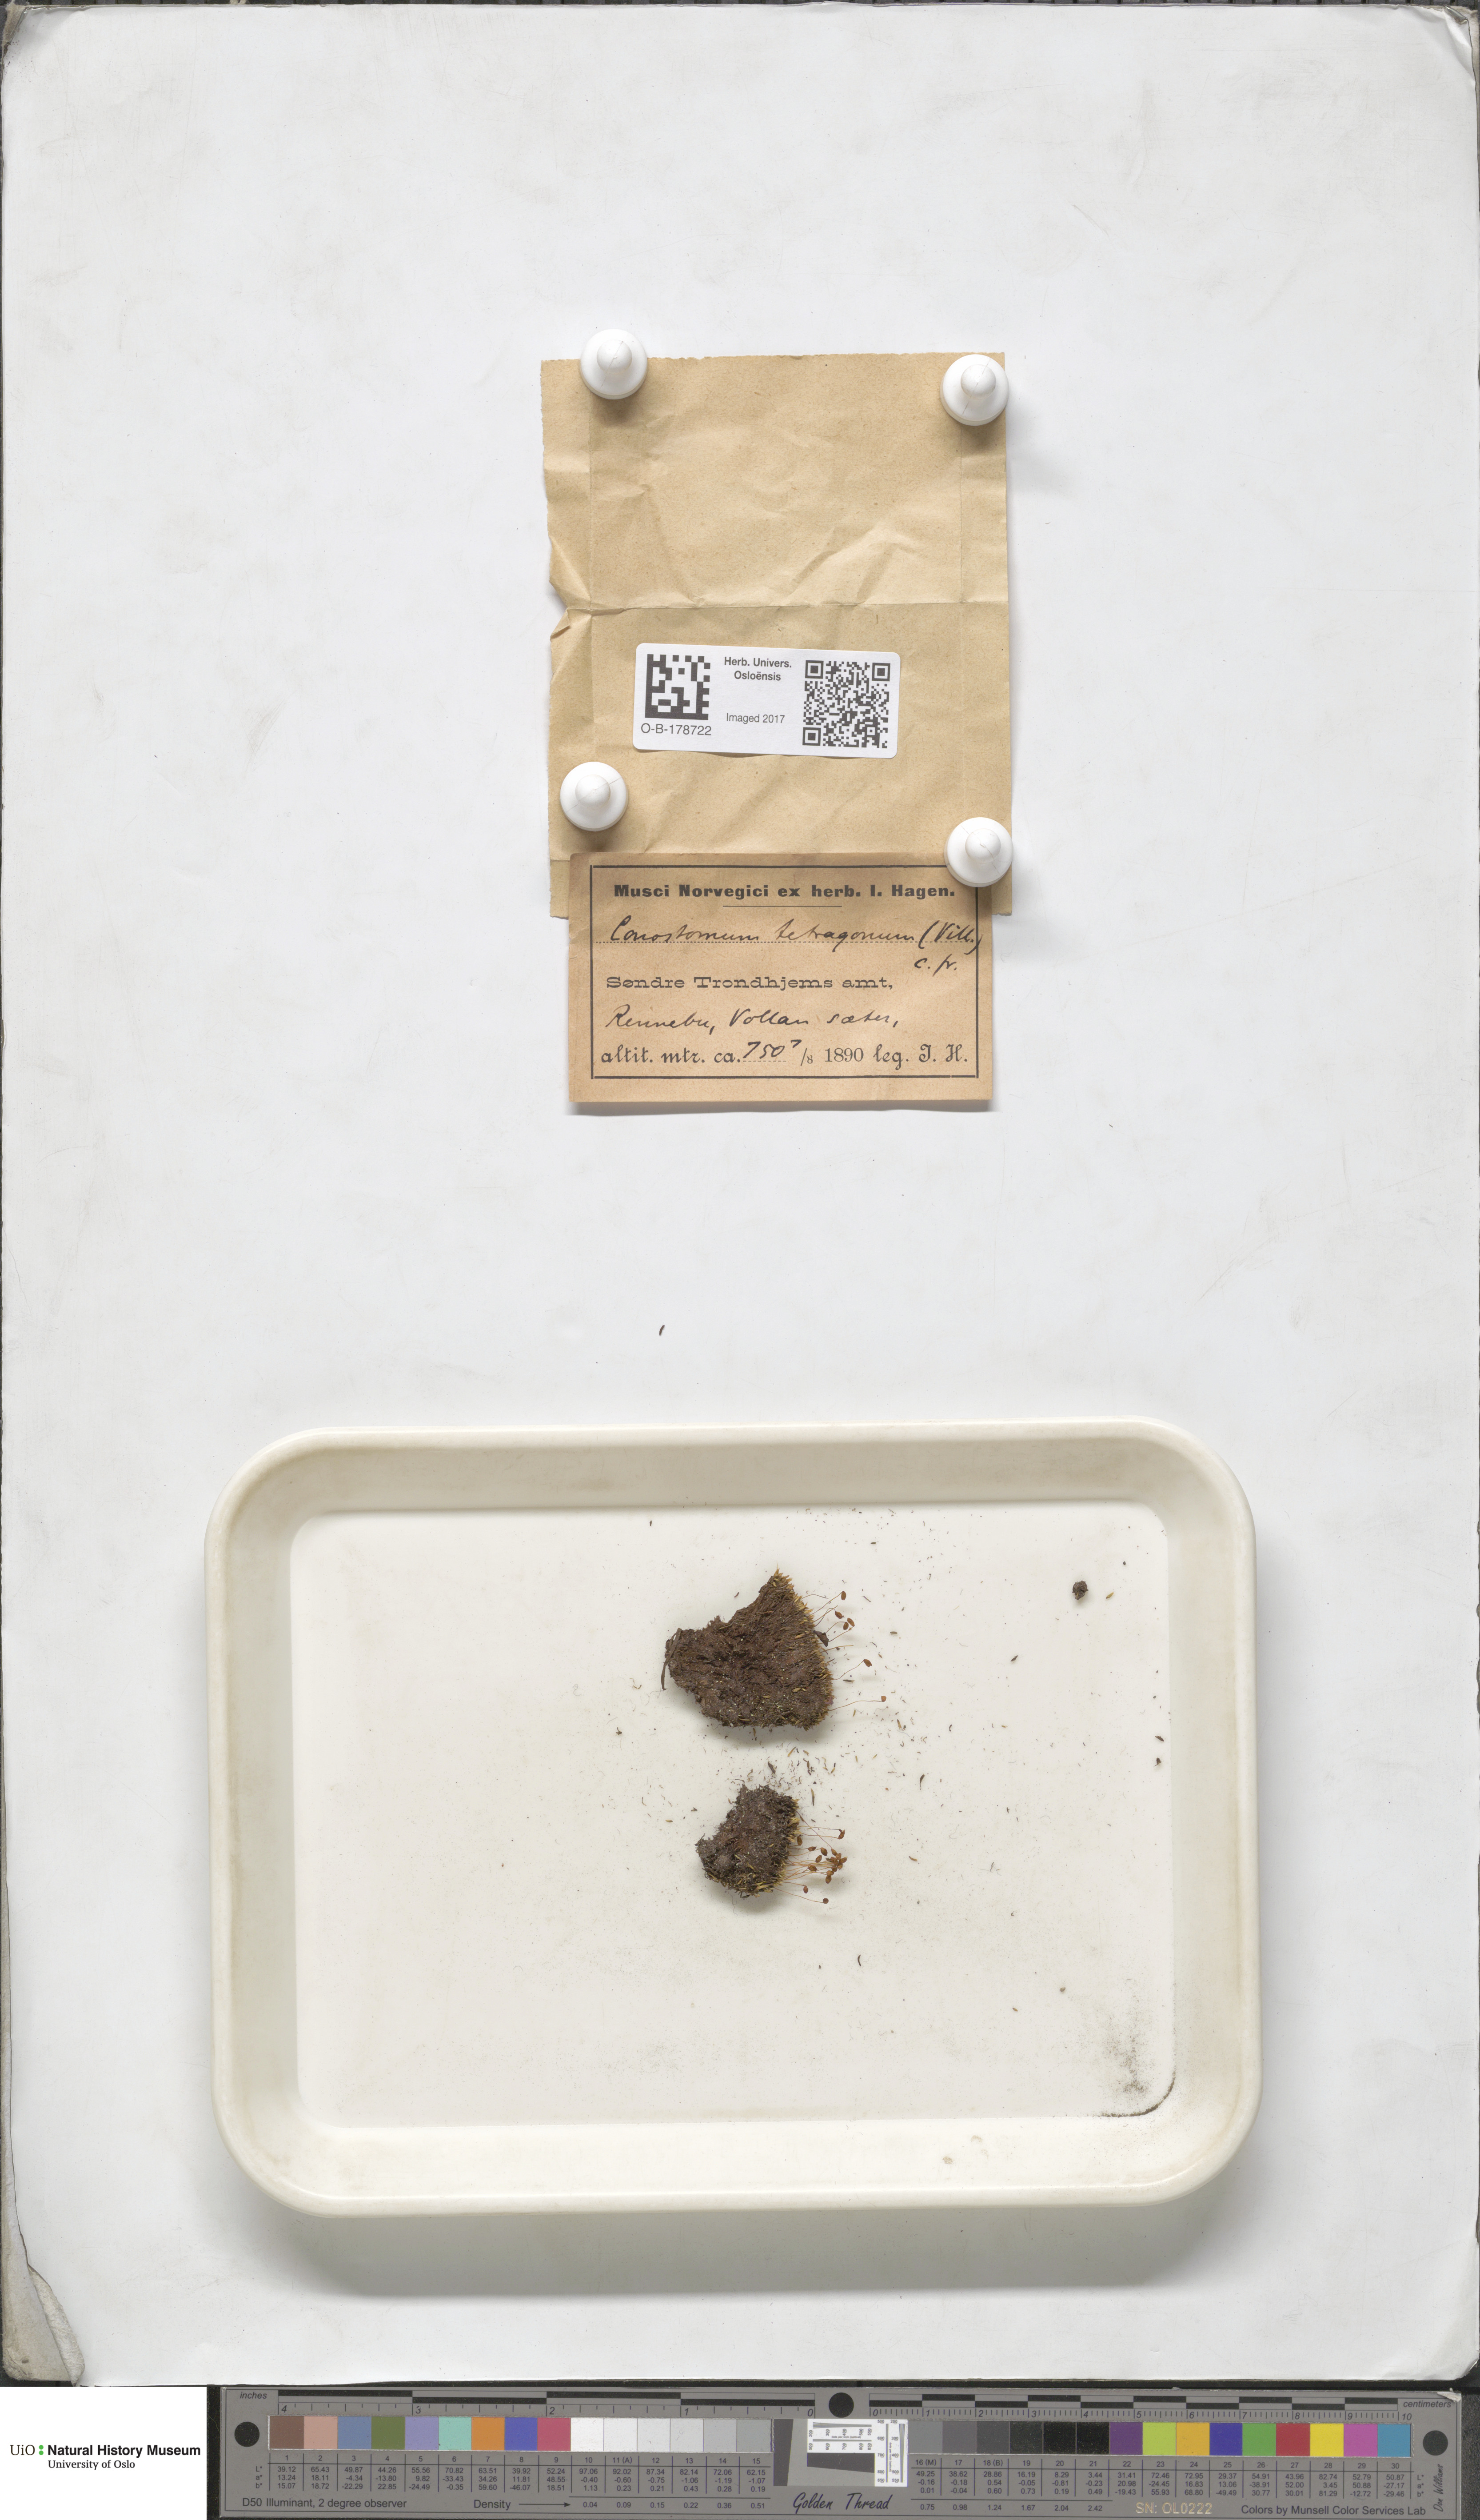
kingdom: Plantae
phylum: Bryophyta
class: Bryopsida
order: Bartramiales
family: Bartramiaceae
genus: Conostomum
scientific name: Conostomum tetragonum
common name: Helmet moss
